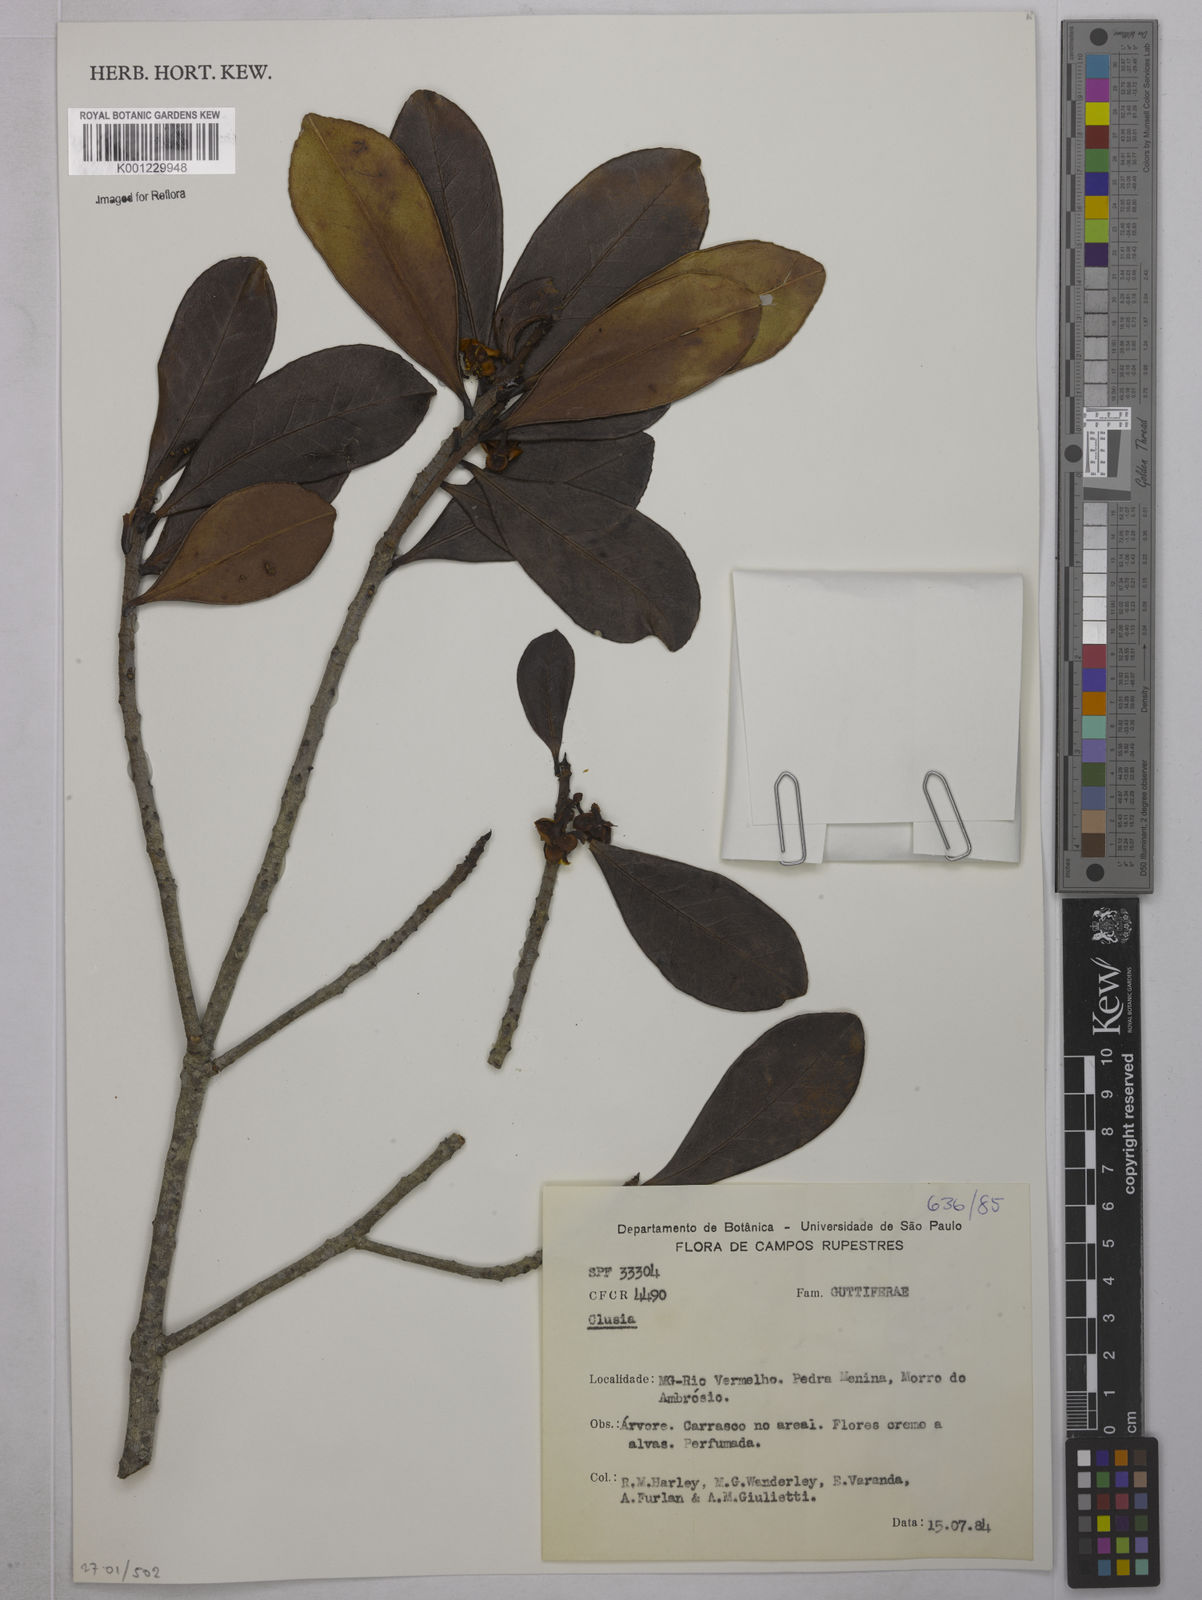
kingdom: Plantae
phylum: Tracheophyta
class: Magnoliopsida
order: Malpighiales
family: Clusiaceae
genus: Clusia
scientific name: Clusia
